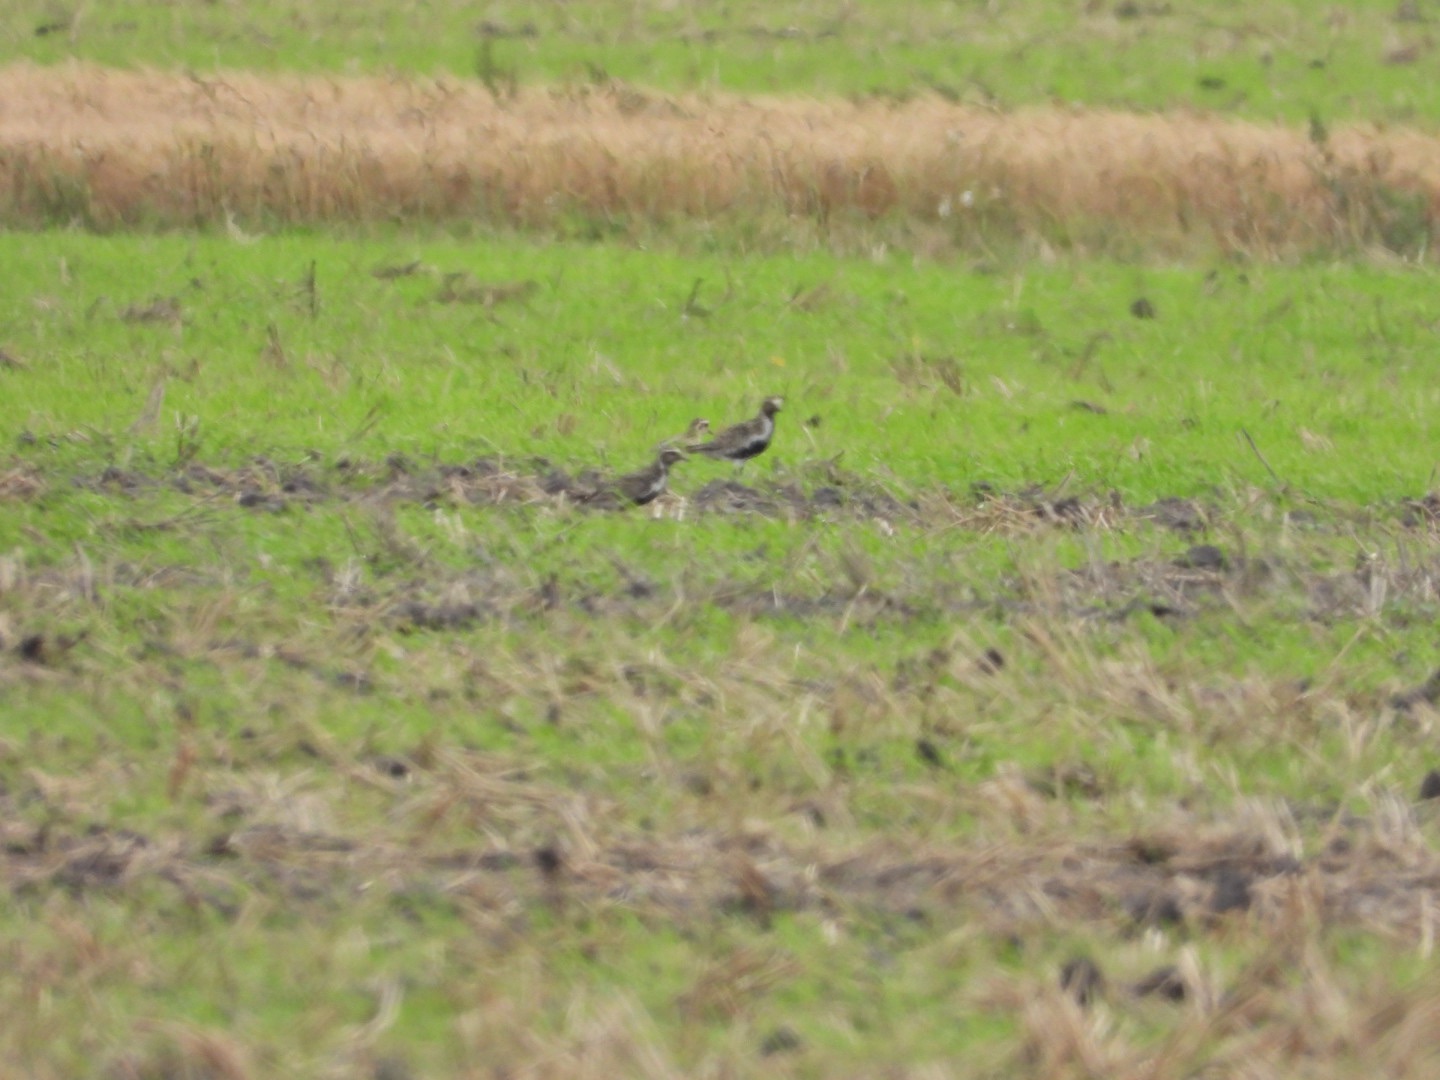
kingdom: Animalia
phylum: Chordata
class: Aves
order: Charadriiformes
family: Charadriidae
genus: Pluvialis
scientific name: Pluvialis apricaria
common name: Hjejle
